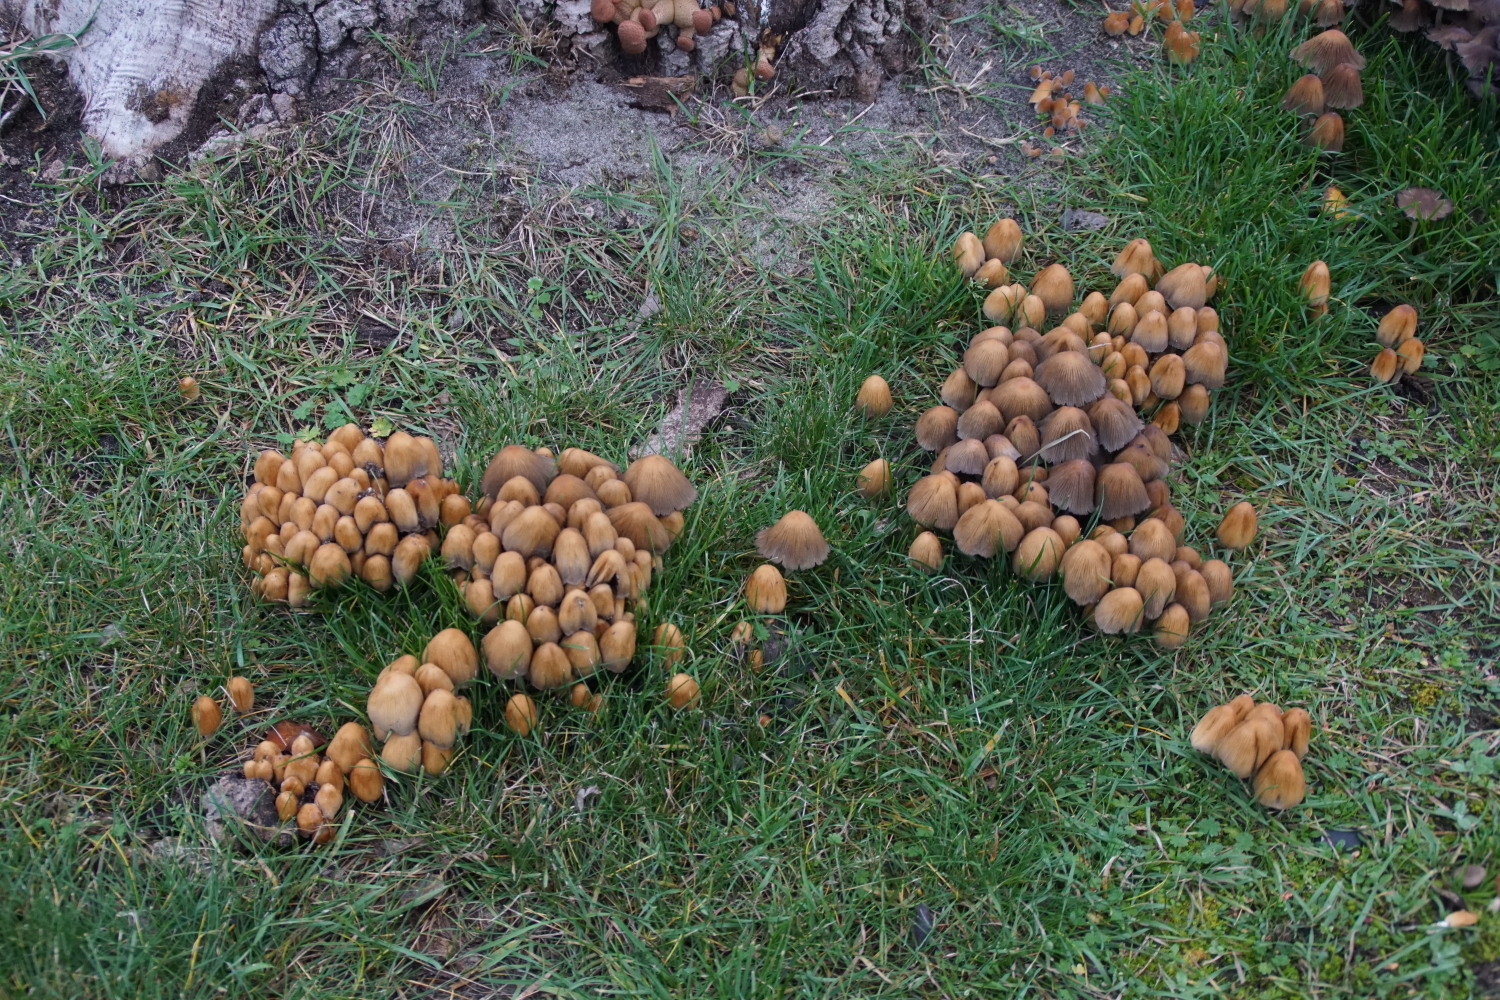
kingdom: Fungi
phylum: Basidiomycota
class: Agaricomycetes
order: Agaricales
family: Psathyrellaceae
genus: Coprinellus
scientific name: Coprinellus micaceus
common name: glimmer-blækhat
